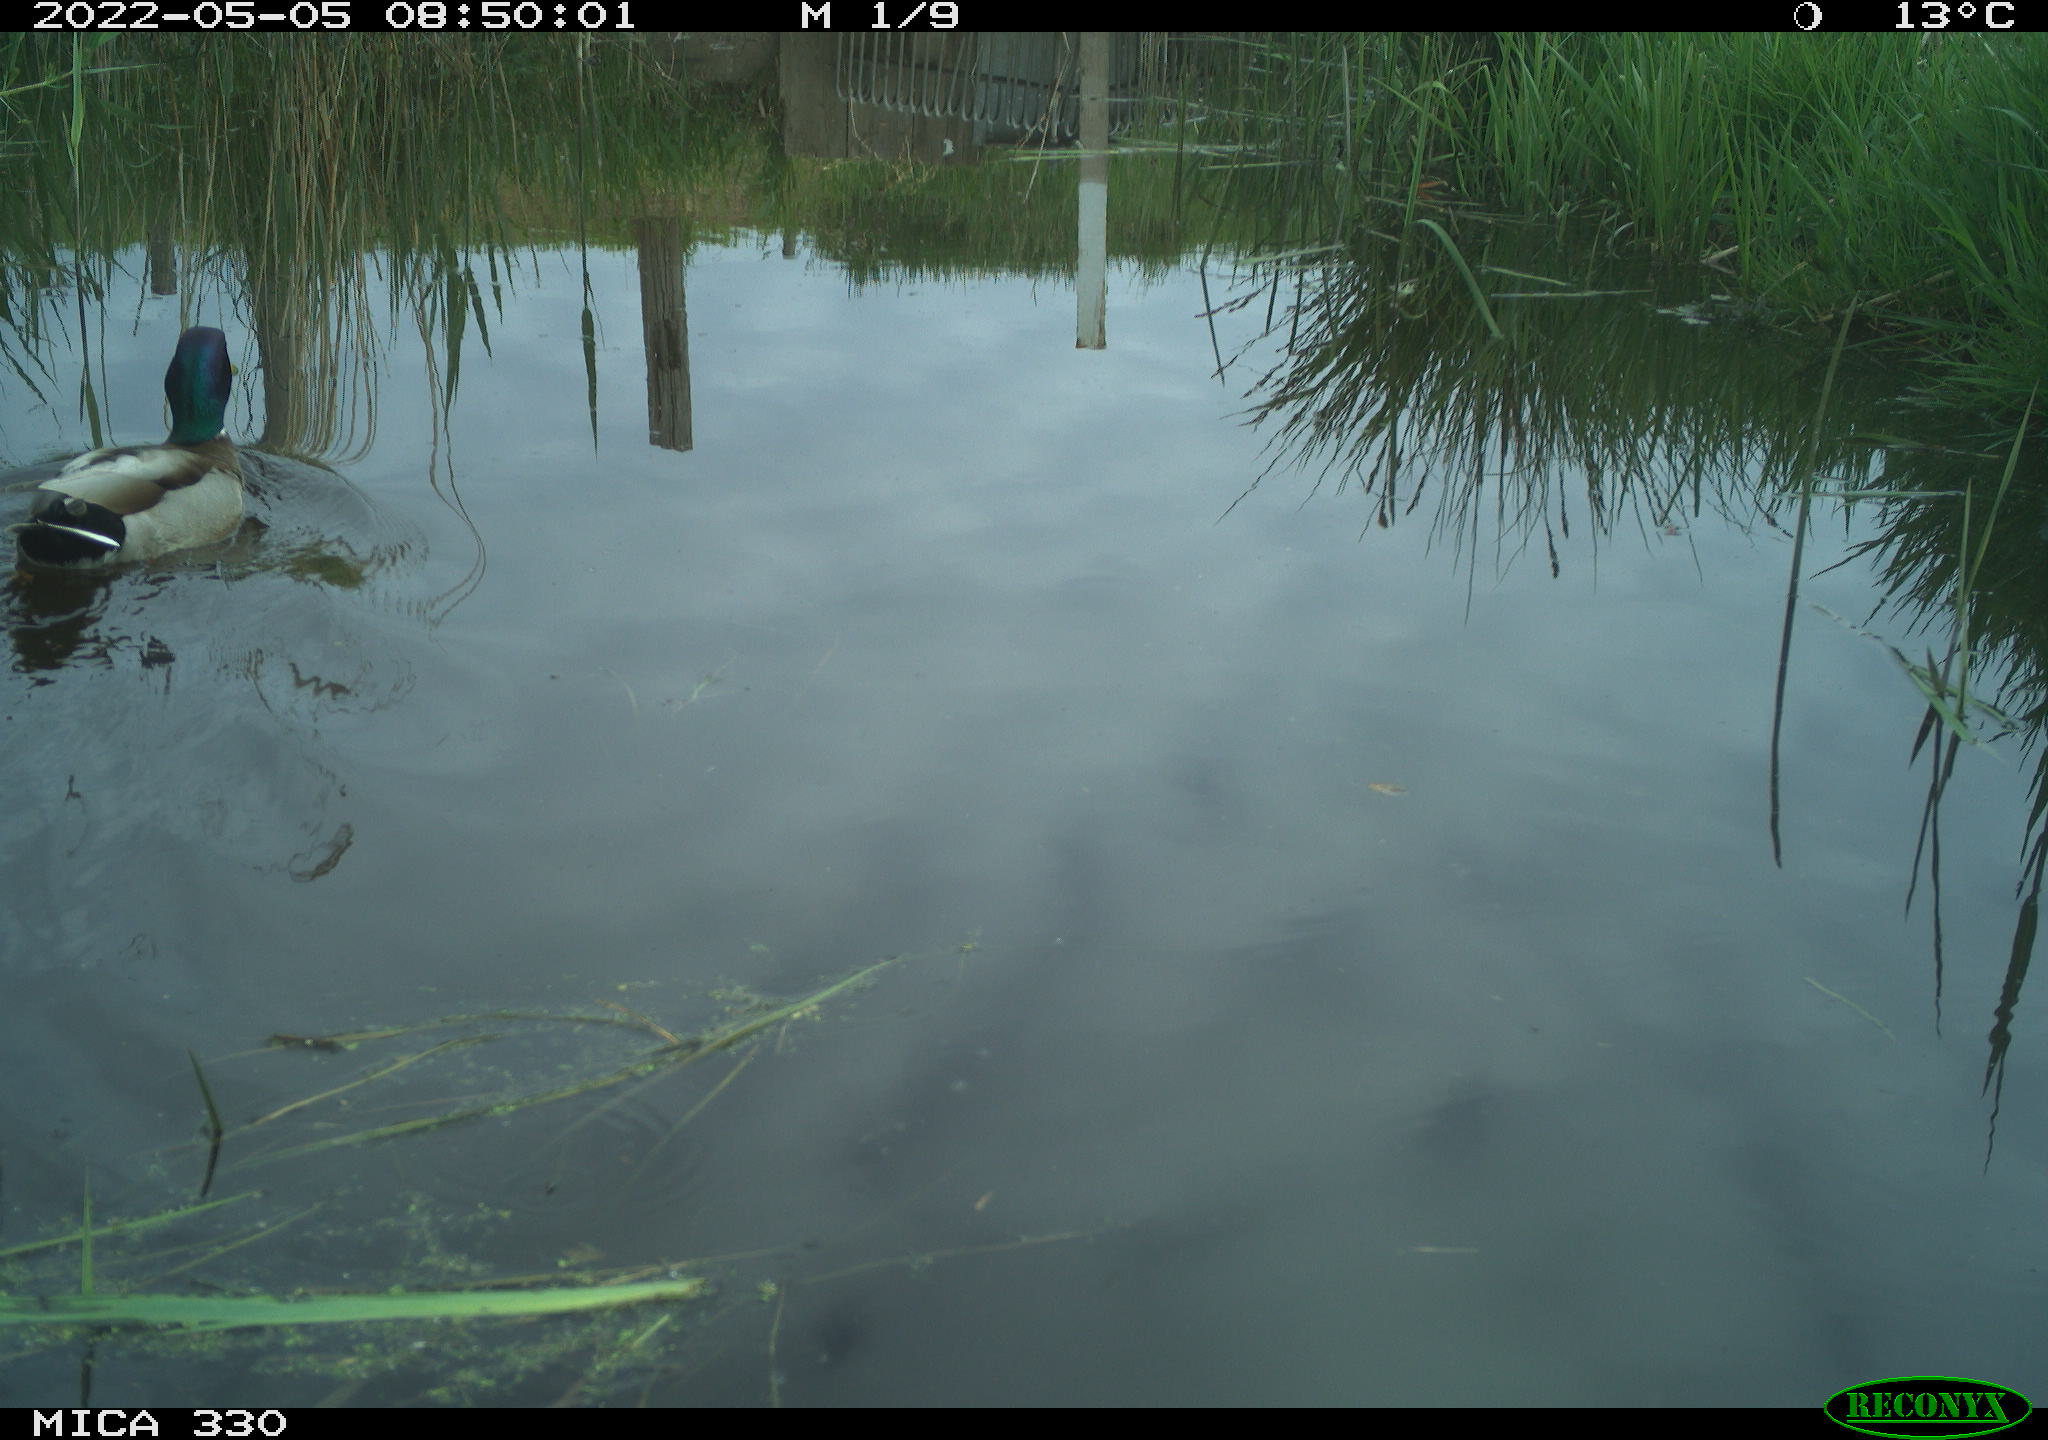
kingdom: Animalia
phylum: Chordata
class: Aves
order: Anseriformes
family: Anatidae
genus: Anas
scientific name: Anas platyrhynchos
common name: Mallard
